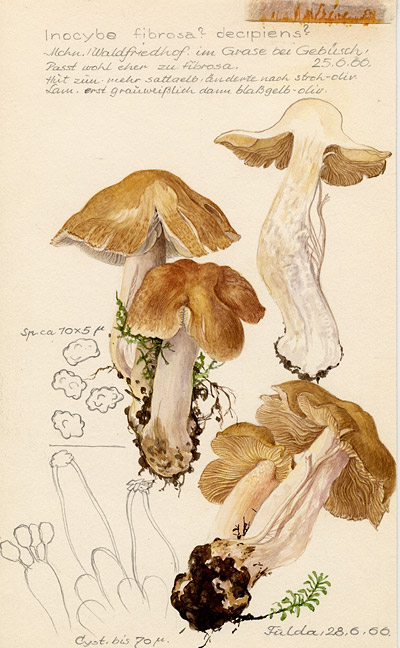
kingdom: Fungi
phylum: Basidiomycota
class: Agaricomycetes
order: Agaricales
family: Inocybaceae
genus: Inocybe
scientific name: Inocybe fibrosa
